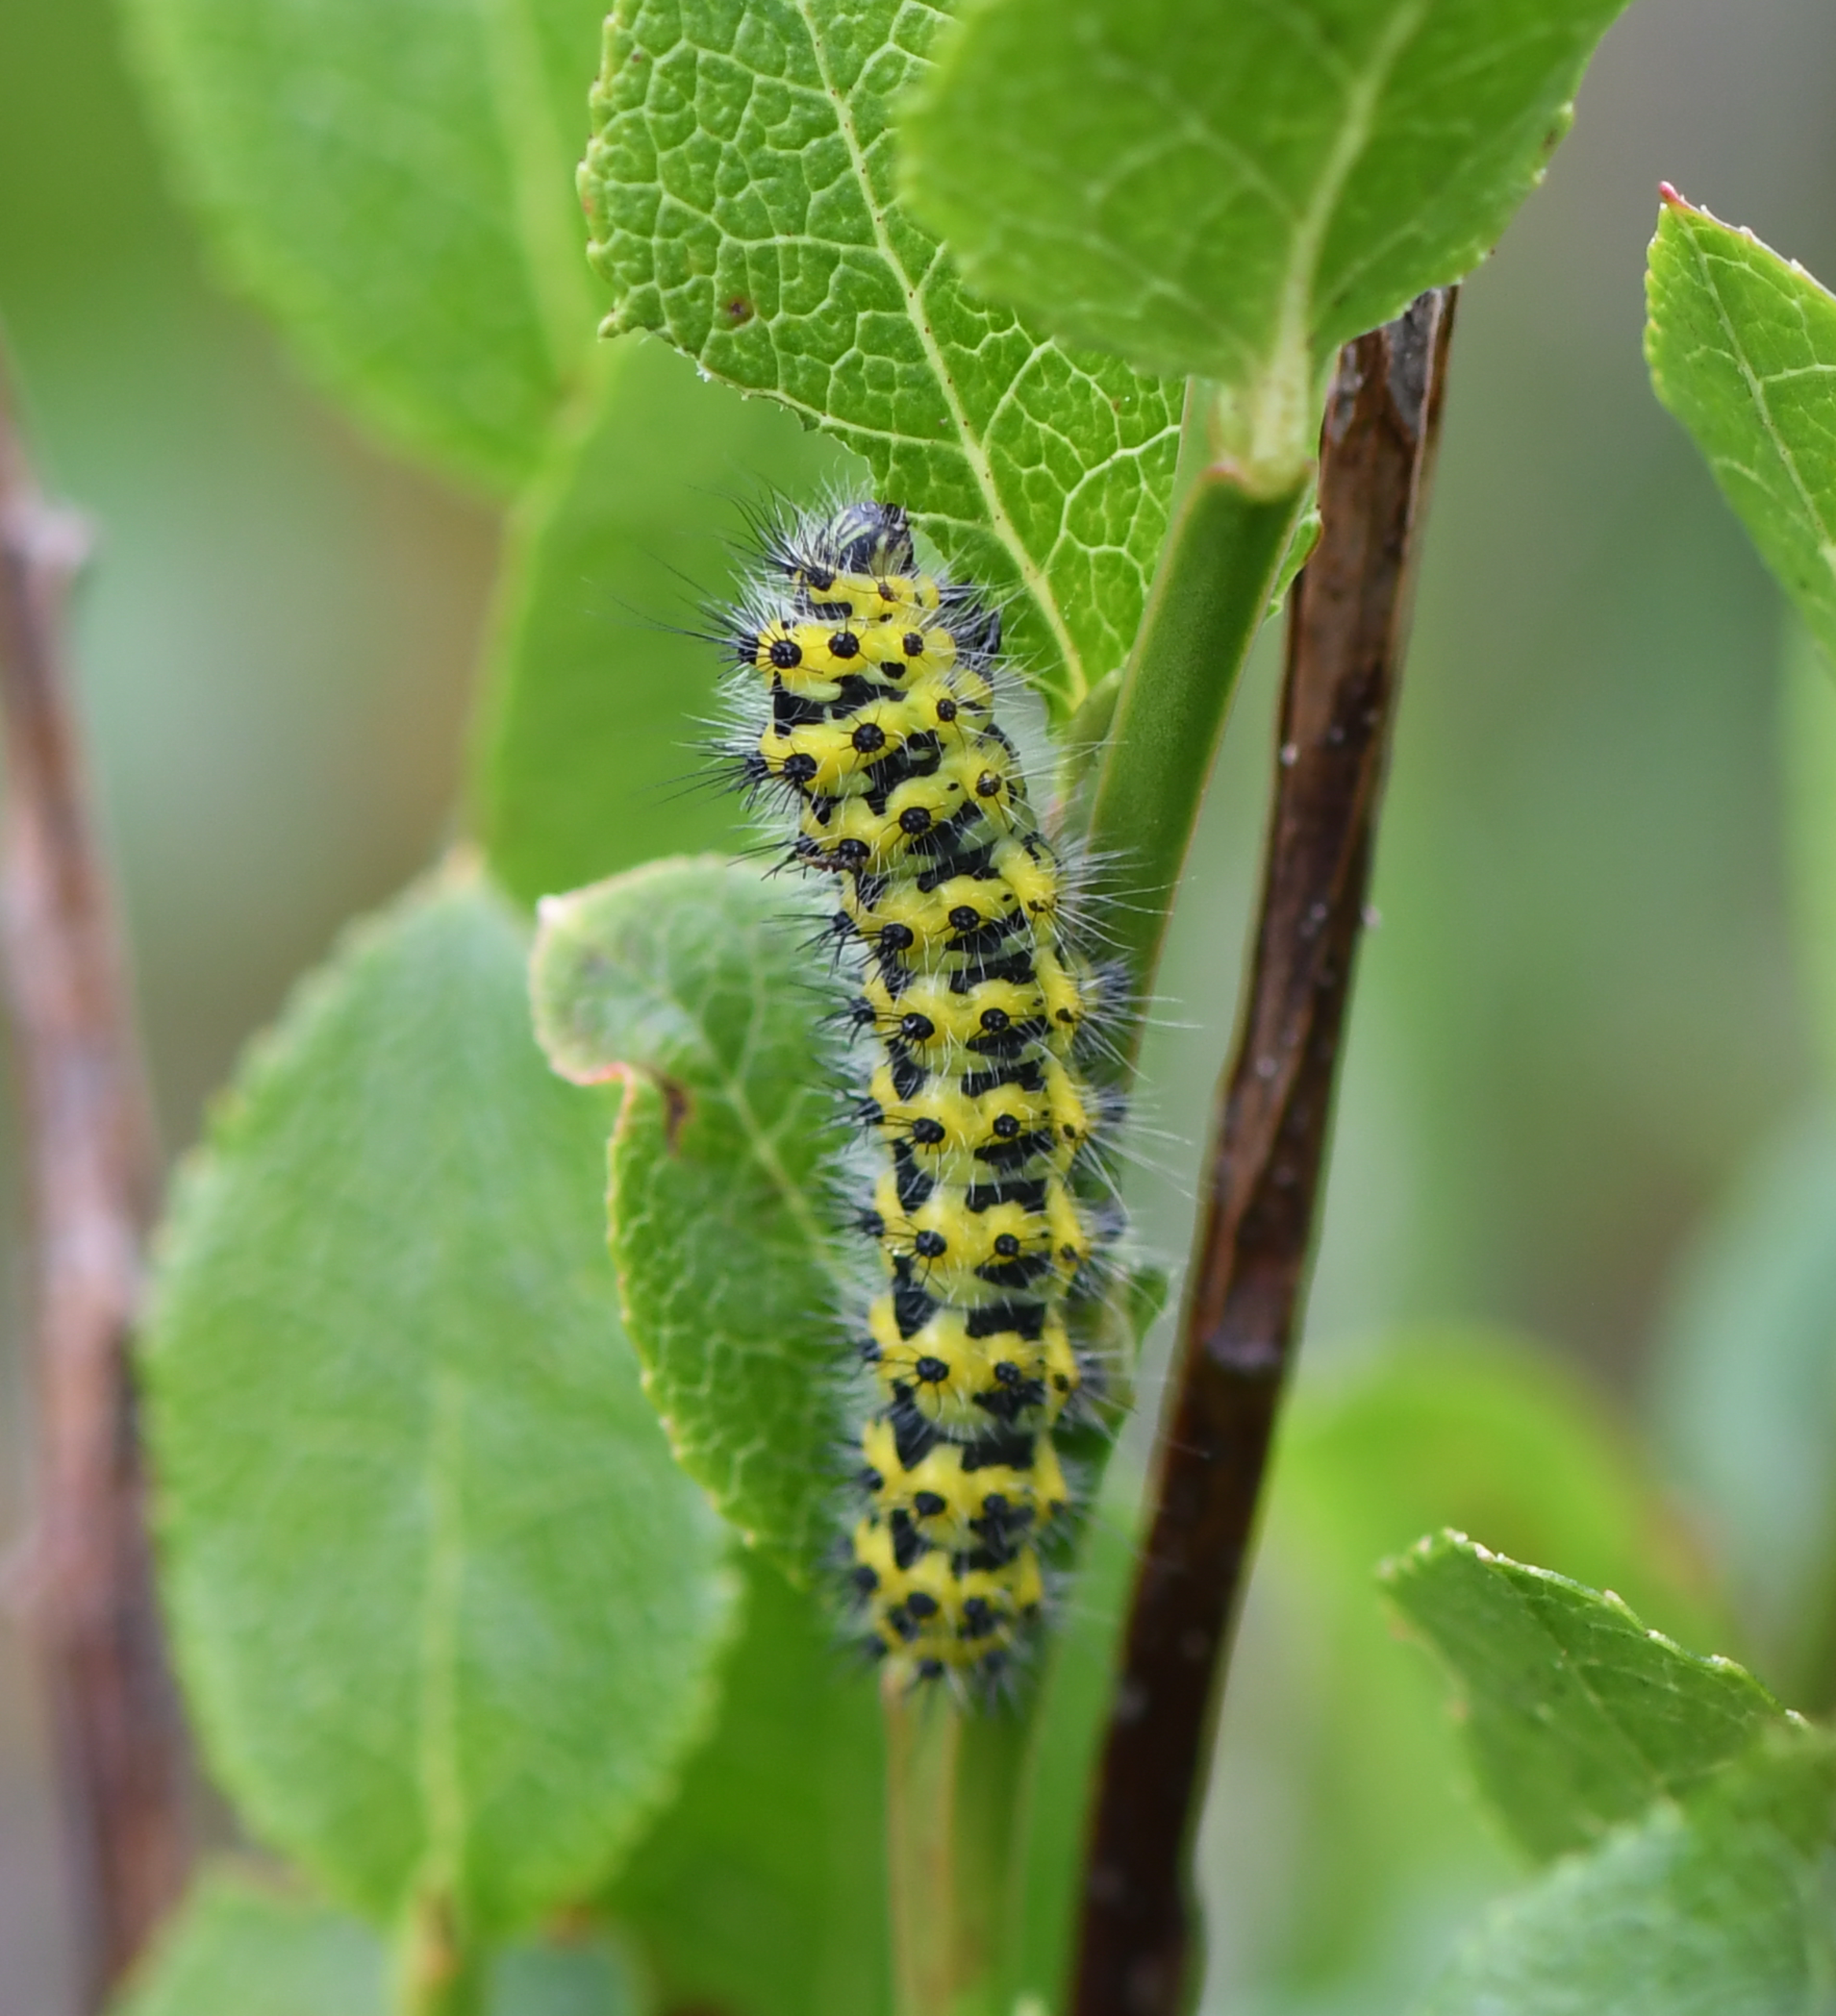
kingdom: Animalia
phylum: Arthropoda
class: Insecta
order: Lepidoptera
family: Saturniidae
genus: Saturnia
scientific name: Saturnia pavonia
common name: Lille natpåfugleøje
